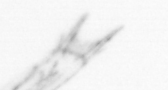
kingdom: Animalia
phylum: Arthropoda
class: Copepoda
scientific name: Copepoda
